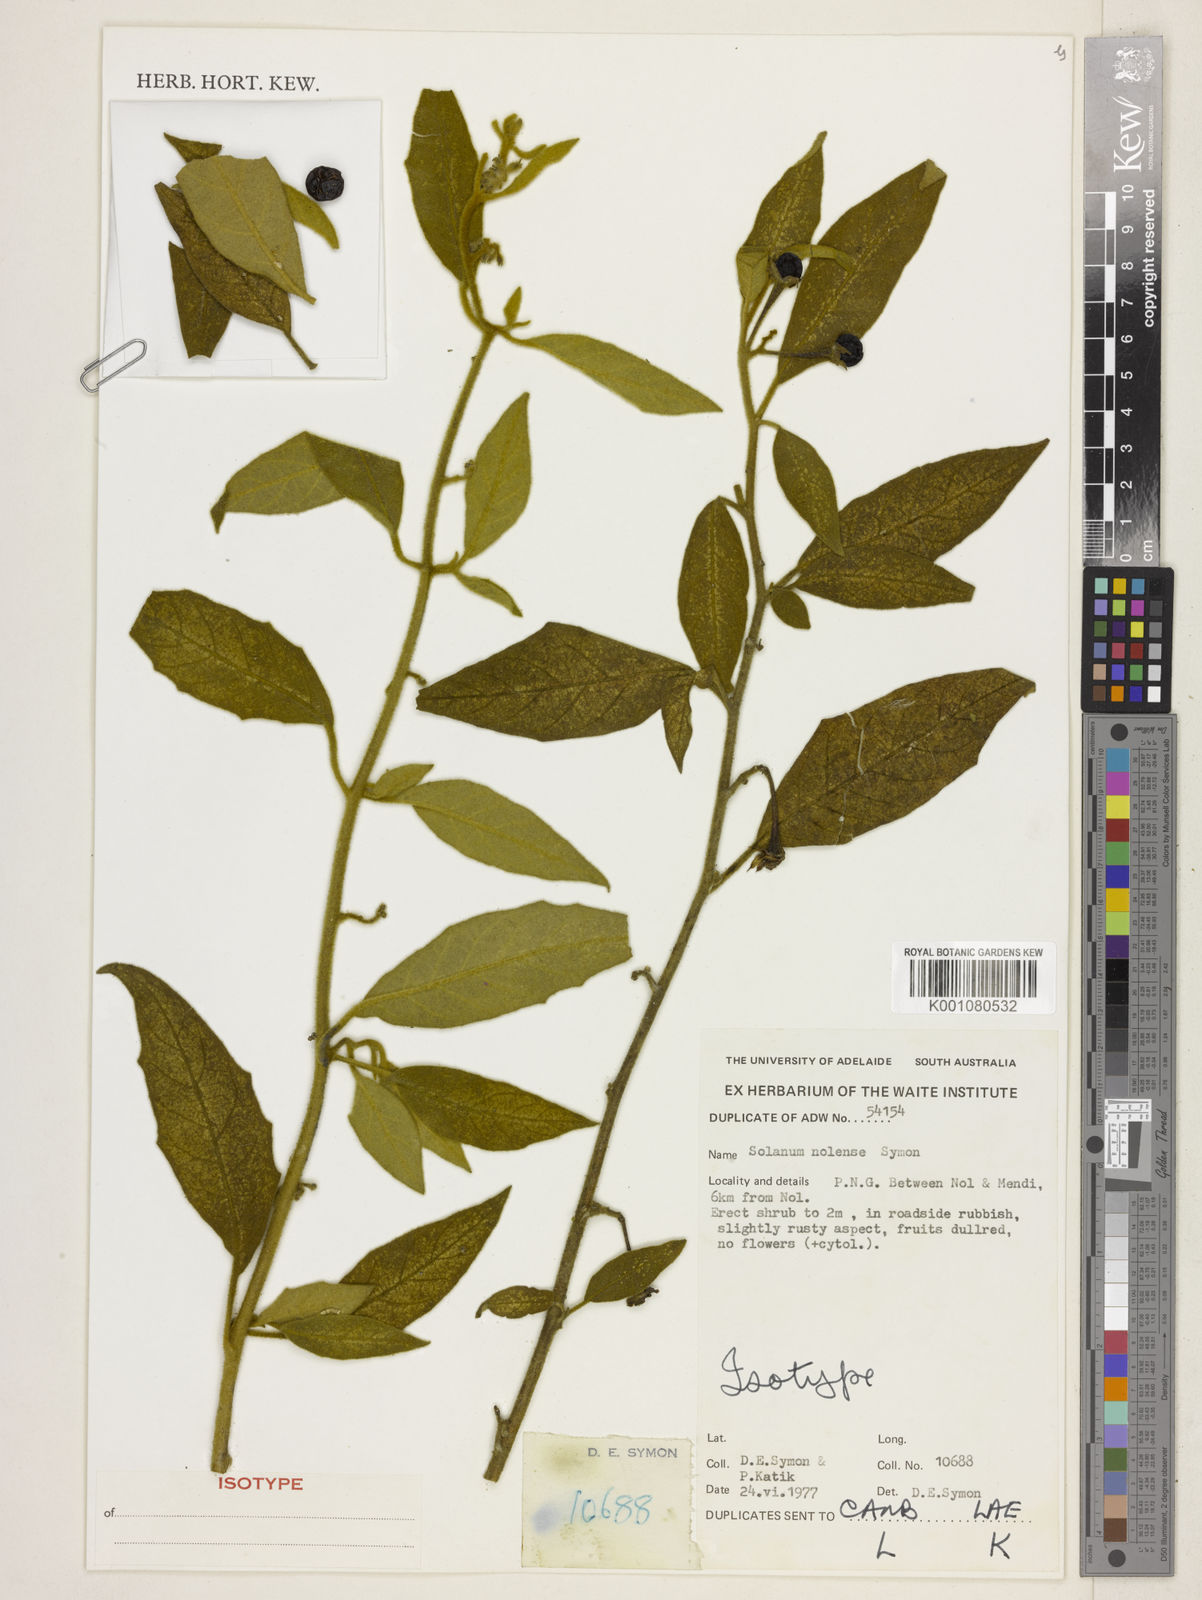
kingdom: Plantae
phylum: Tracheophyta
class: Magnoliopsida
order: Solanales
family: Solanaceae
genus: Solanum
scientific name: Solanum nolense
